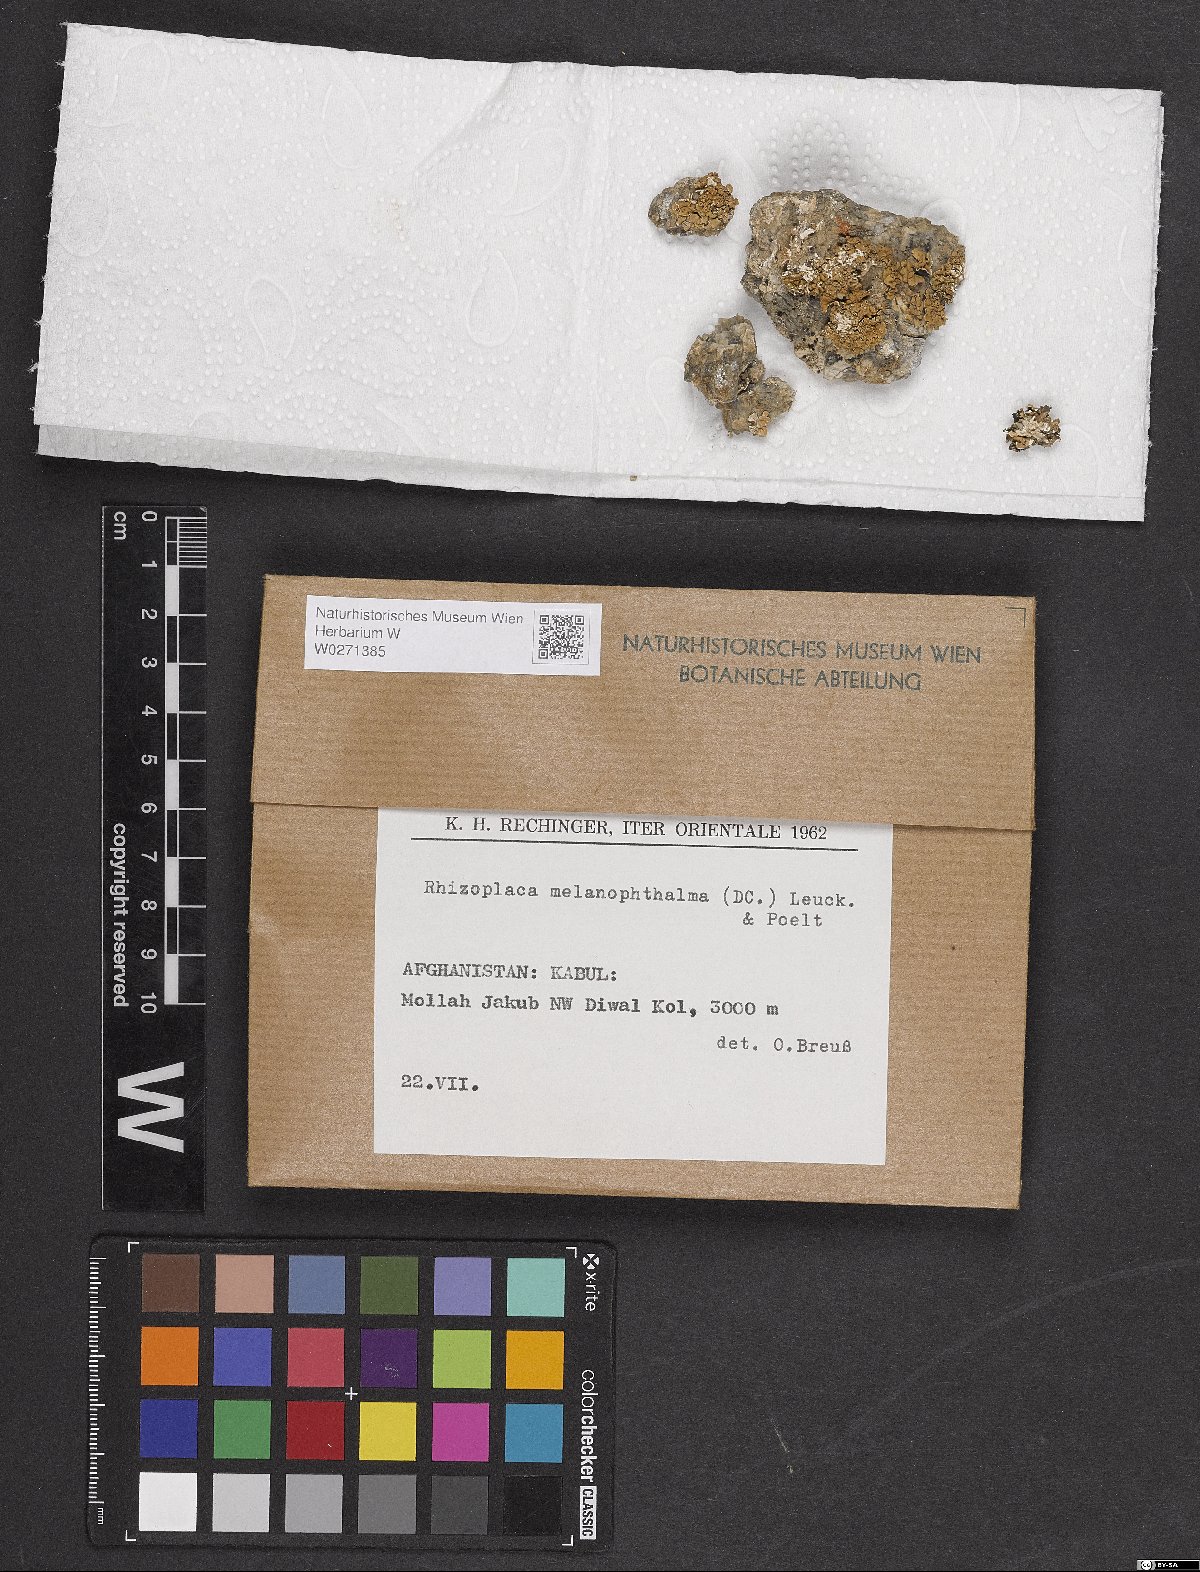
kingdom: Fungi
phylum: Ascomycota
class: Lecanoromycetes
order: Lecanorales
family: Lecanoraceae
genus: Rhizoplaca
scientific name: Rhizoplaca melanophthalma
